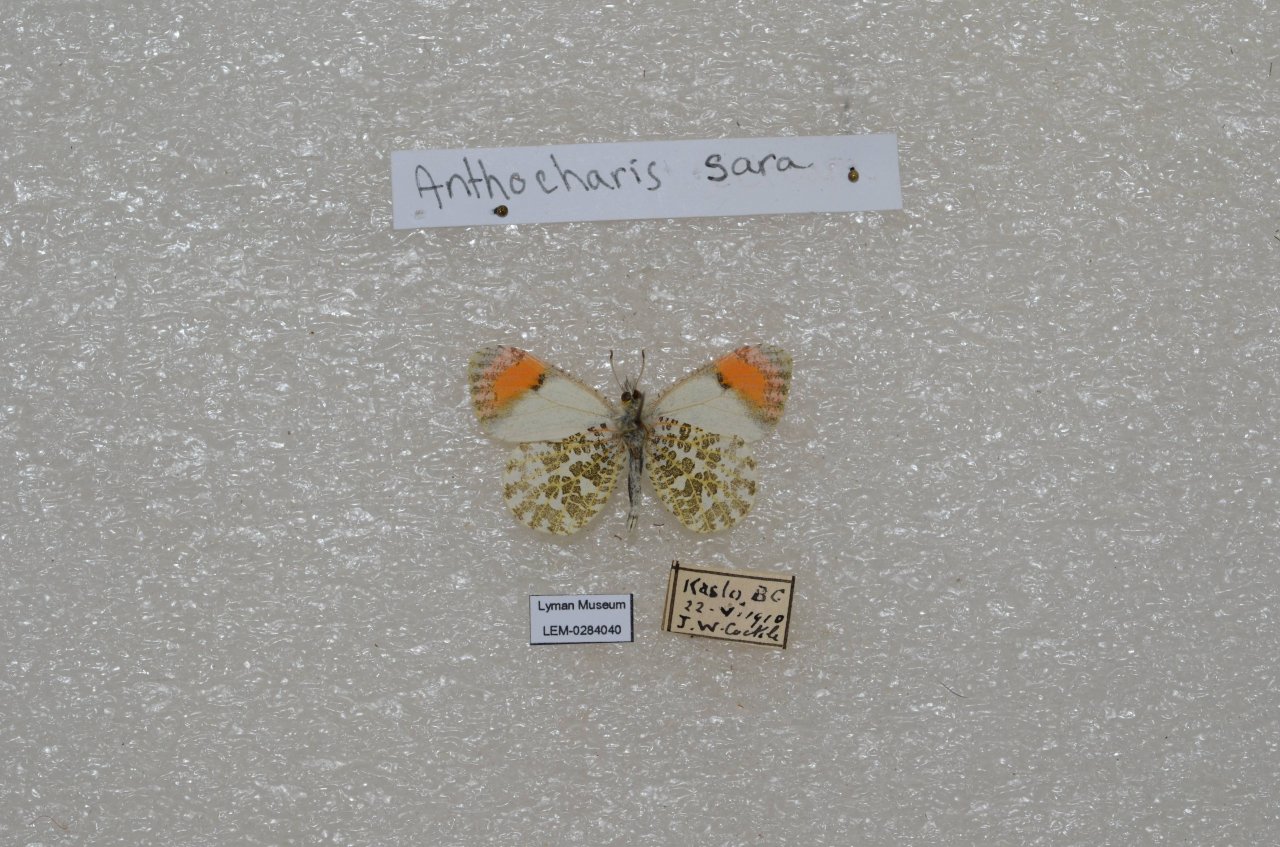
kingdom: Animalia
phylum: Arthropoda
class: Insecta
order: Lepidoptera
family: Pieridae
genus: Anthocharis
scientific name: Anthocharis sara
